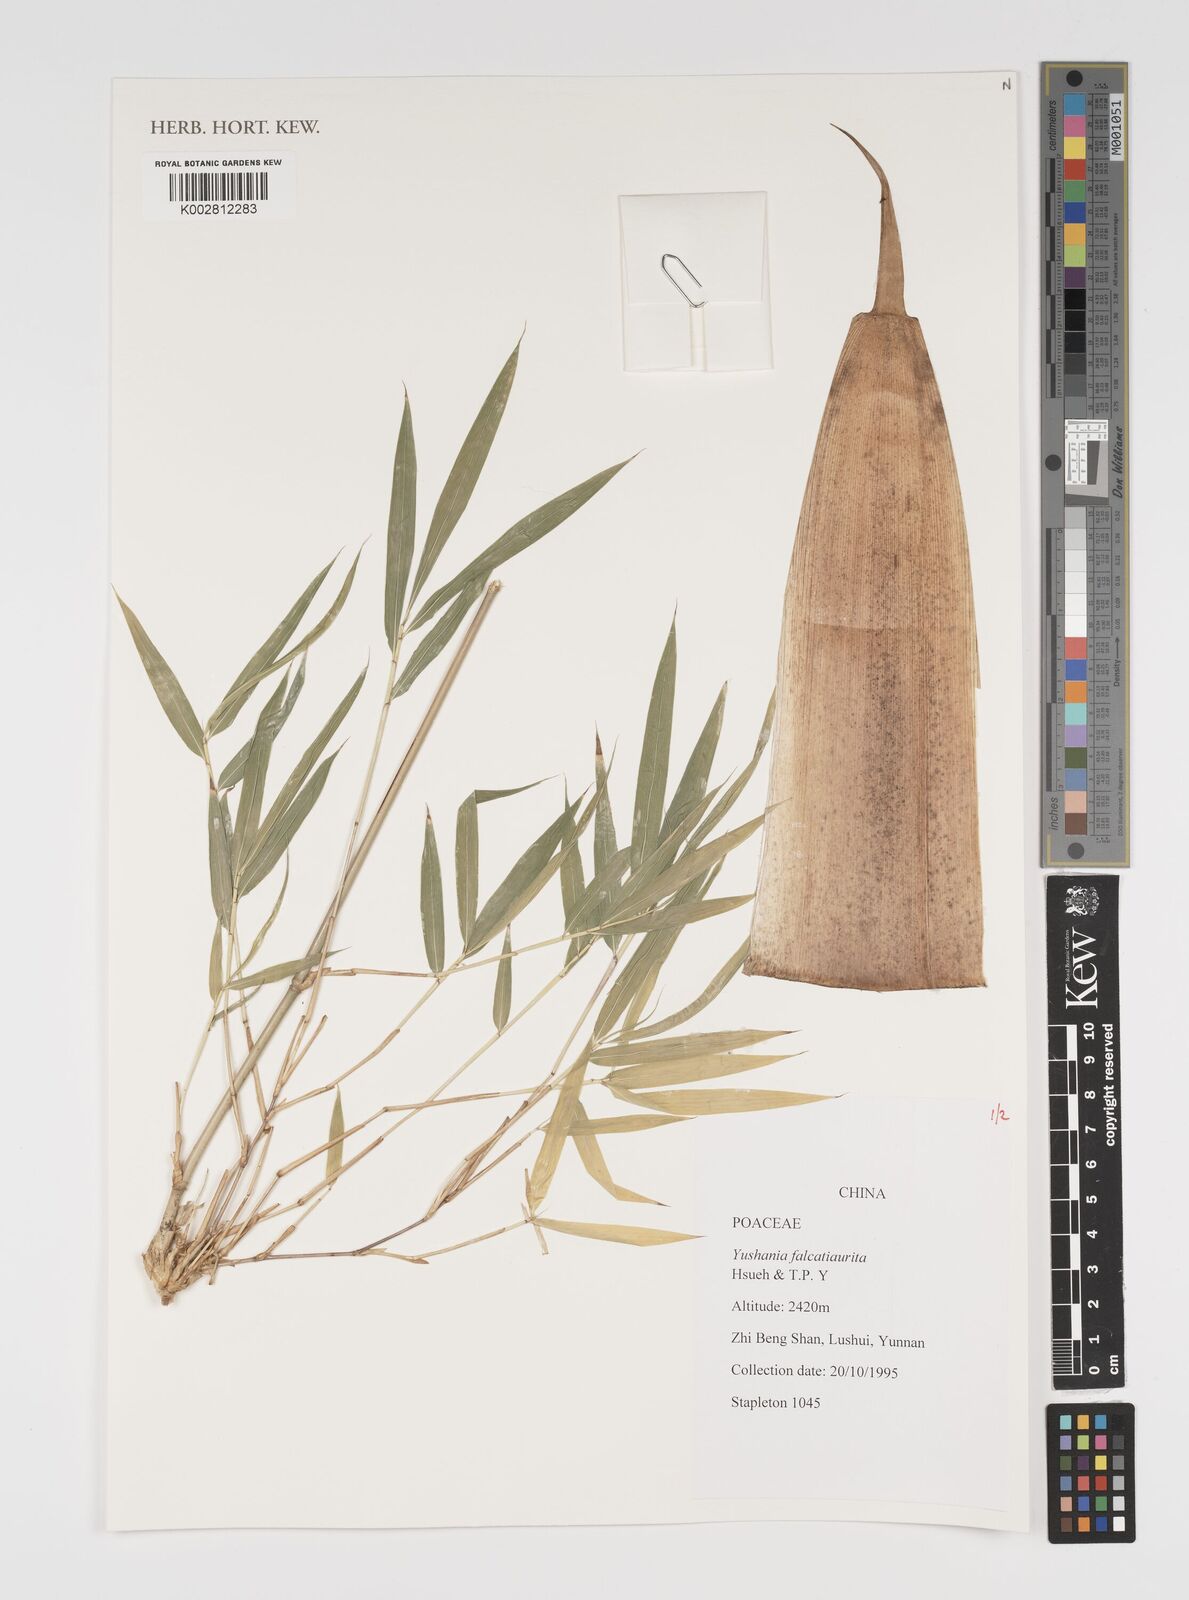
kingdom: Plantae
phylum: Tracheophyta
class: Liliopsida
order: Poales
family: Poaceae
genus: Yushania
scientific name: Yushania falcatiaurita
